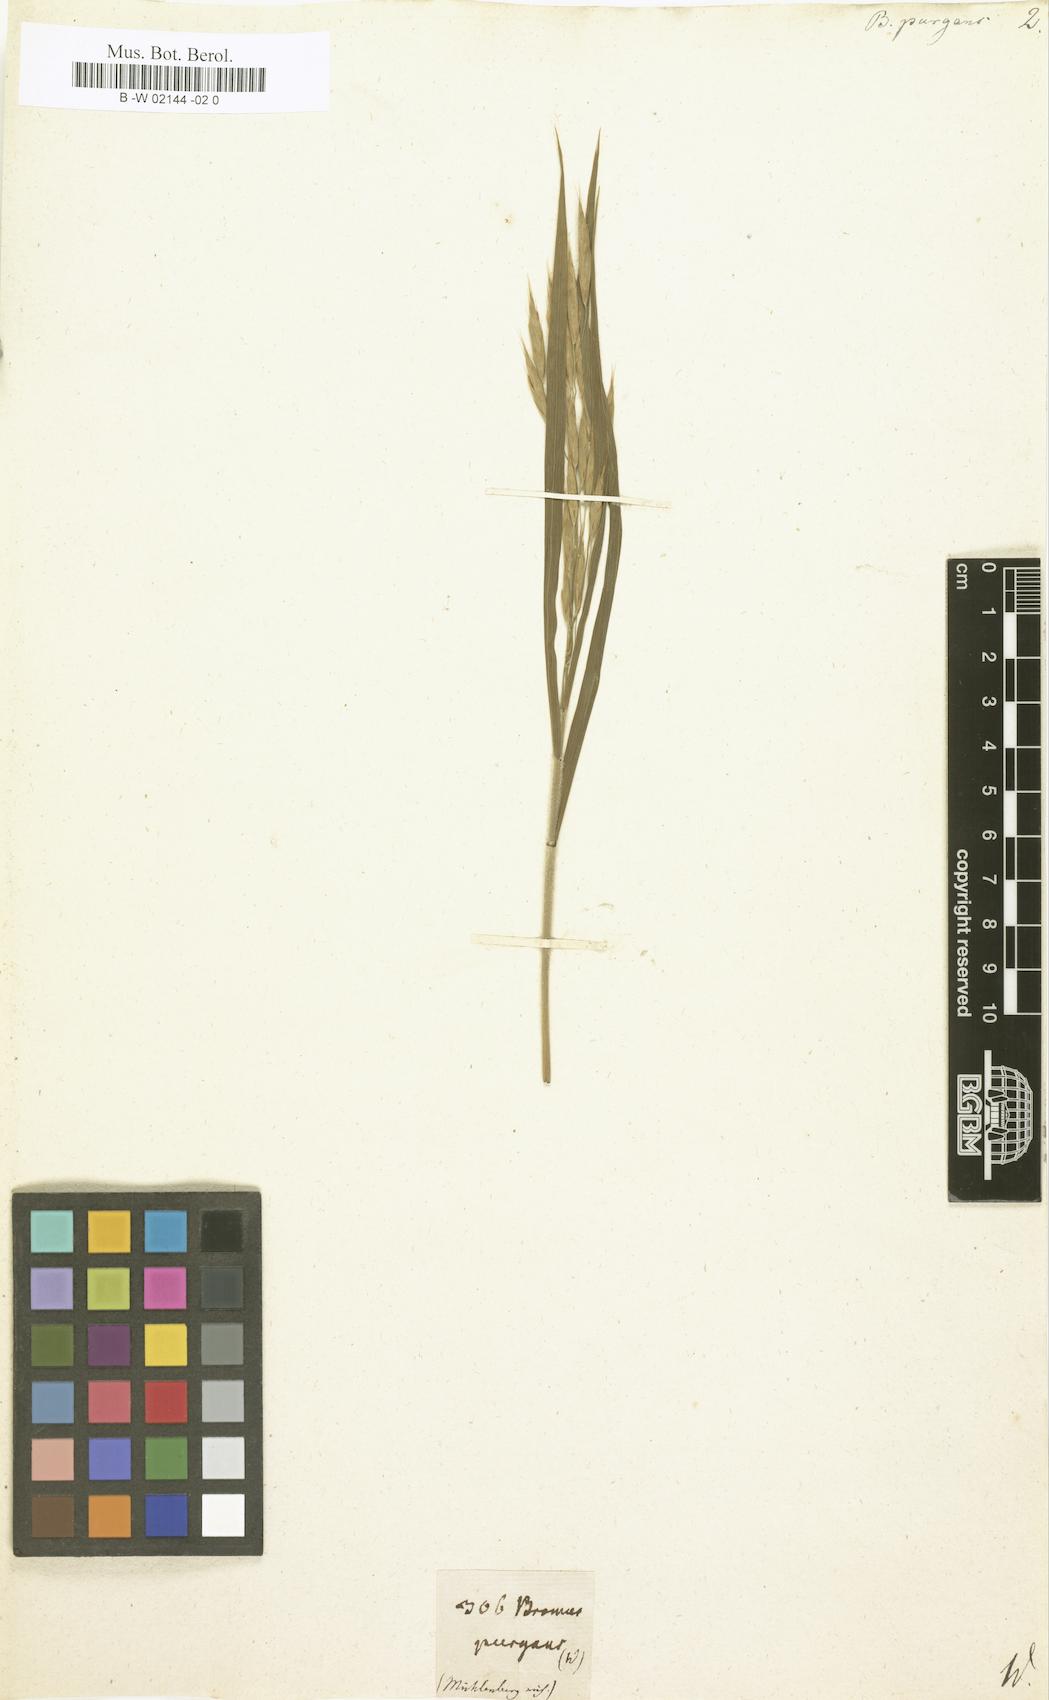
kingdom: Plantae
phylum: Tracheophyta
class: Liliopsida
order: Poales
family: Poaceae
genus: Bromus
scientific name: Bromus kalmii
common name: Kalm brome
